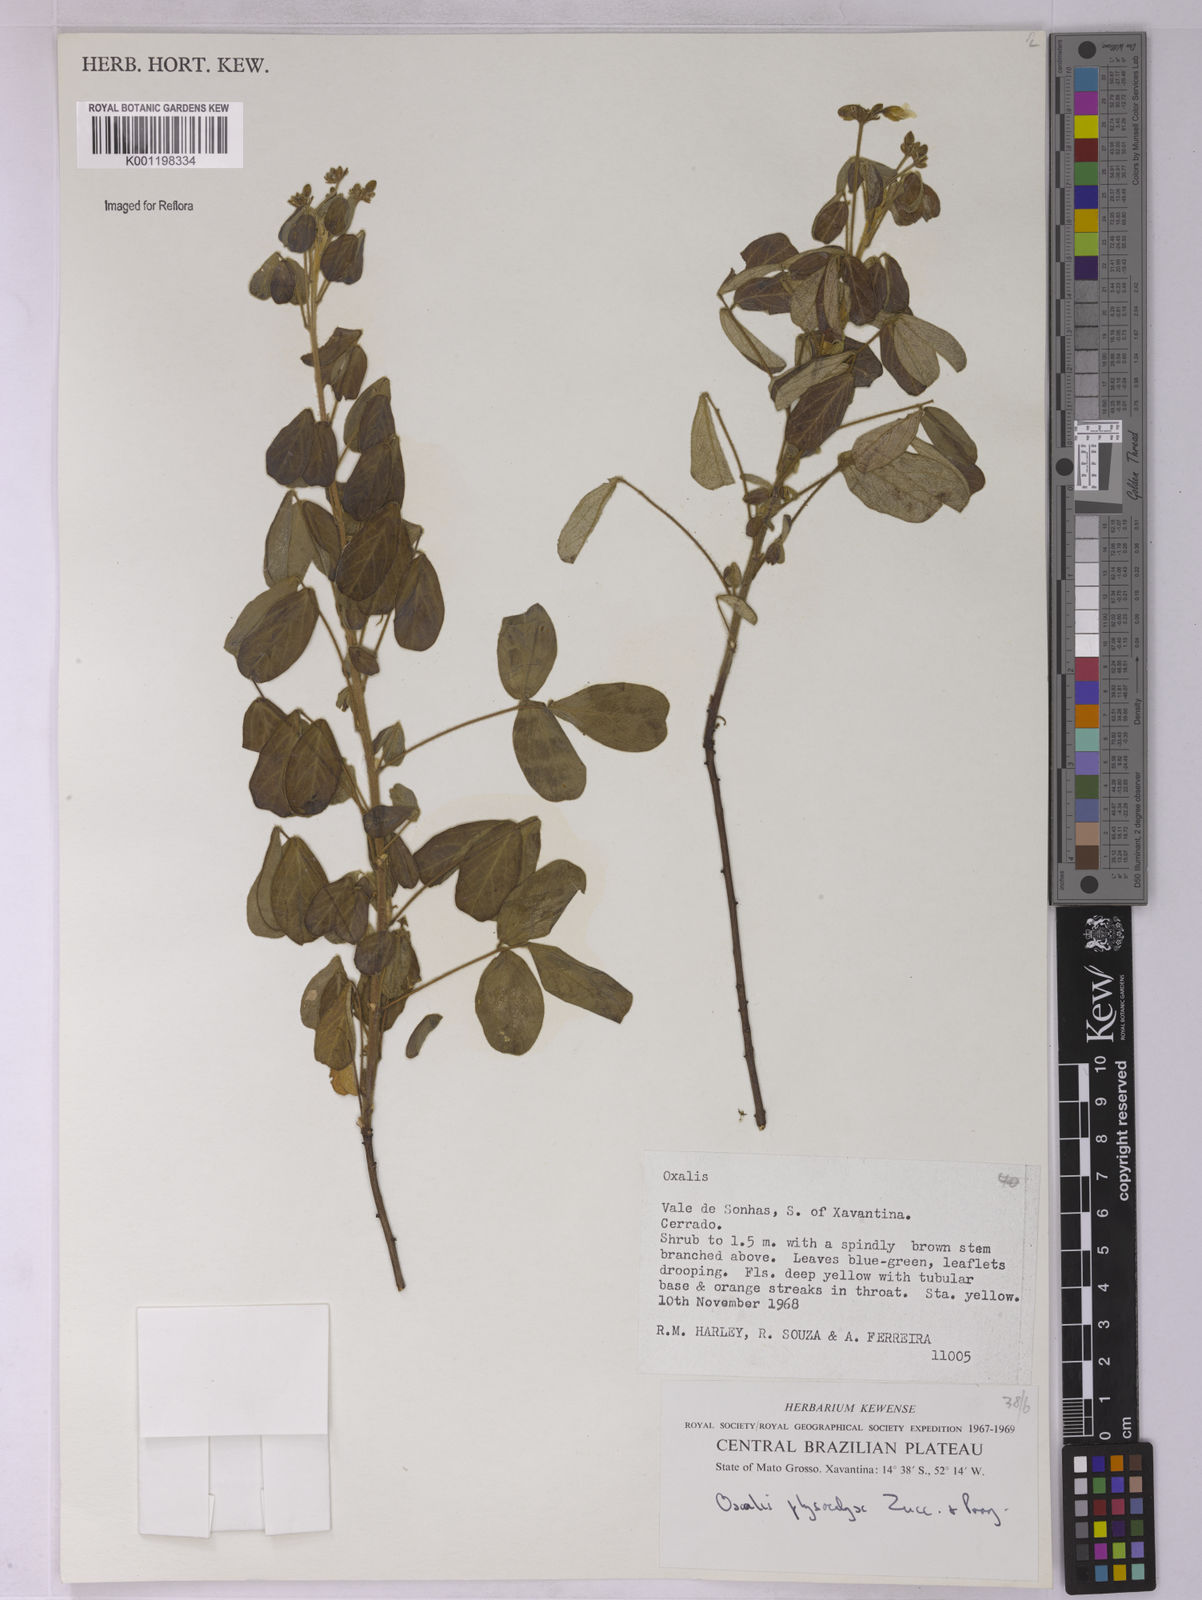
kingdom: Plantae
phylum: Tracheophyta
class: Magnoliopsida
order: Oxalidales
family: Oxalidaceae
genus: Oxalis
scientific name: Oxalis physocalyx
